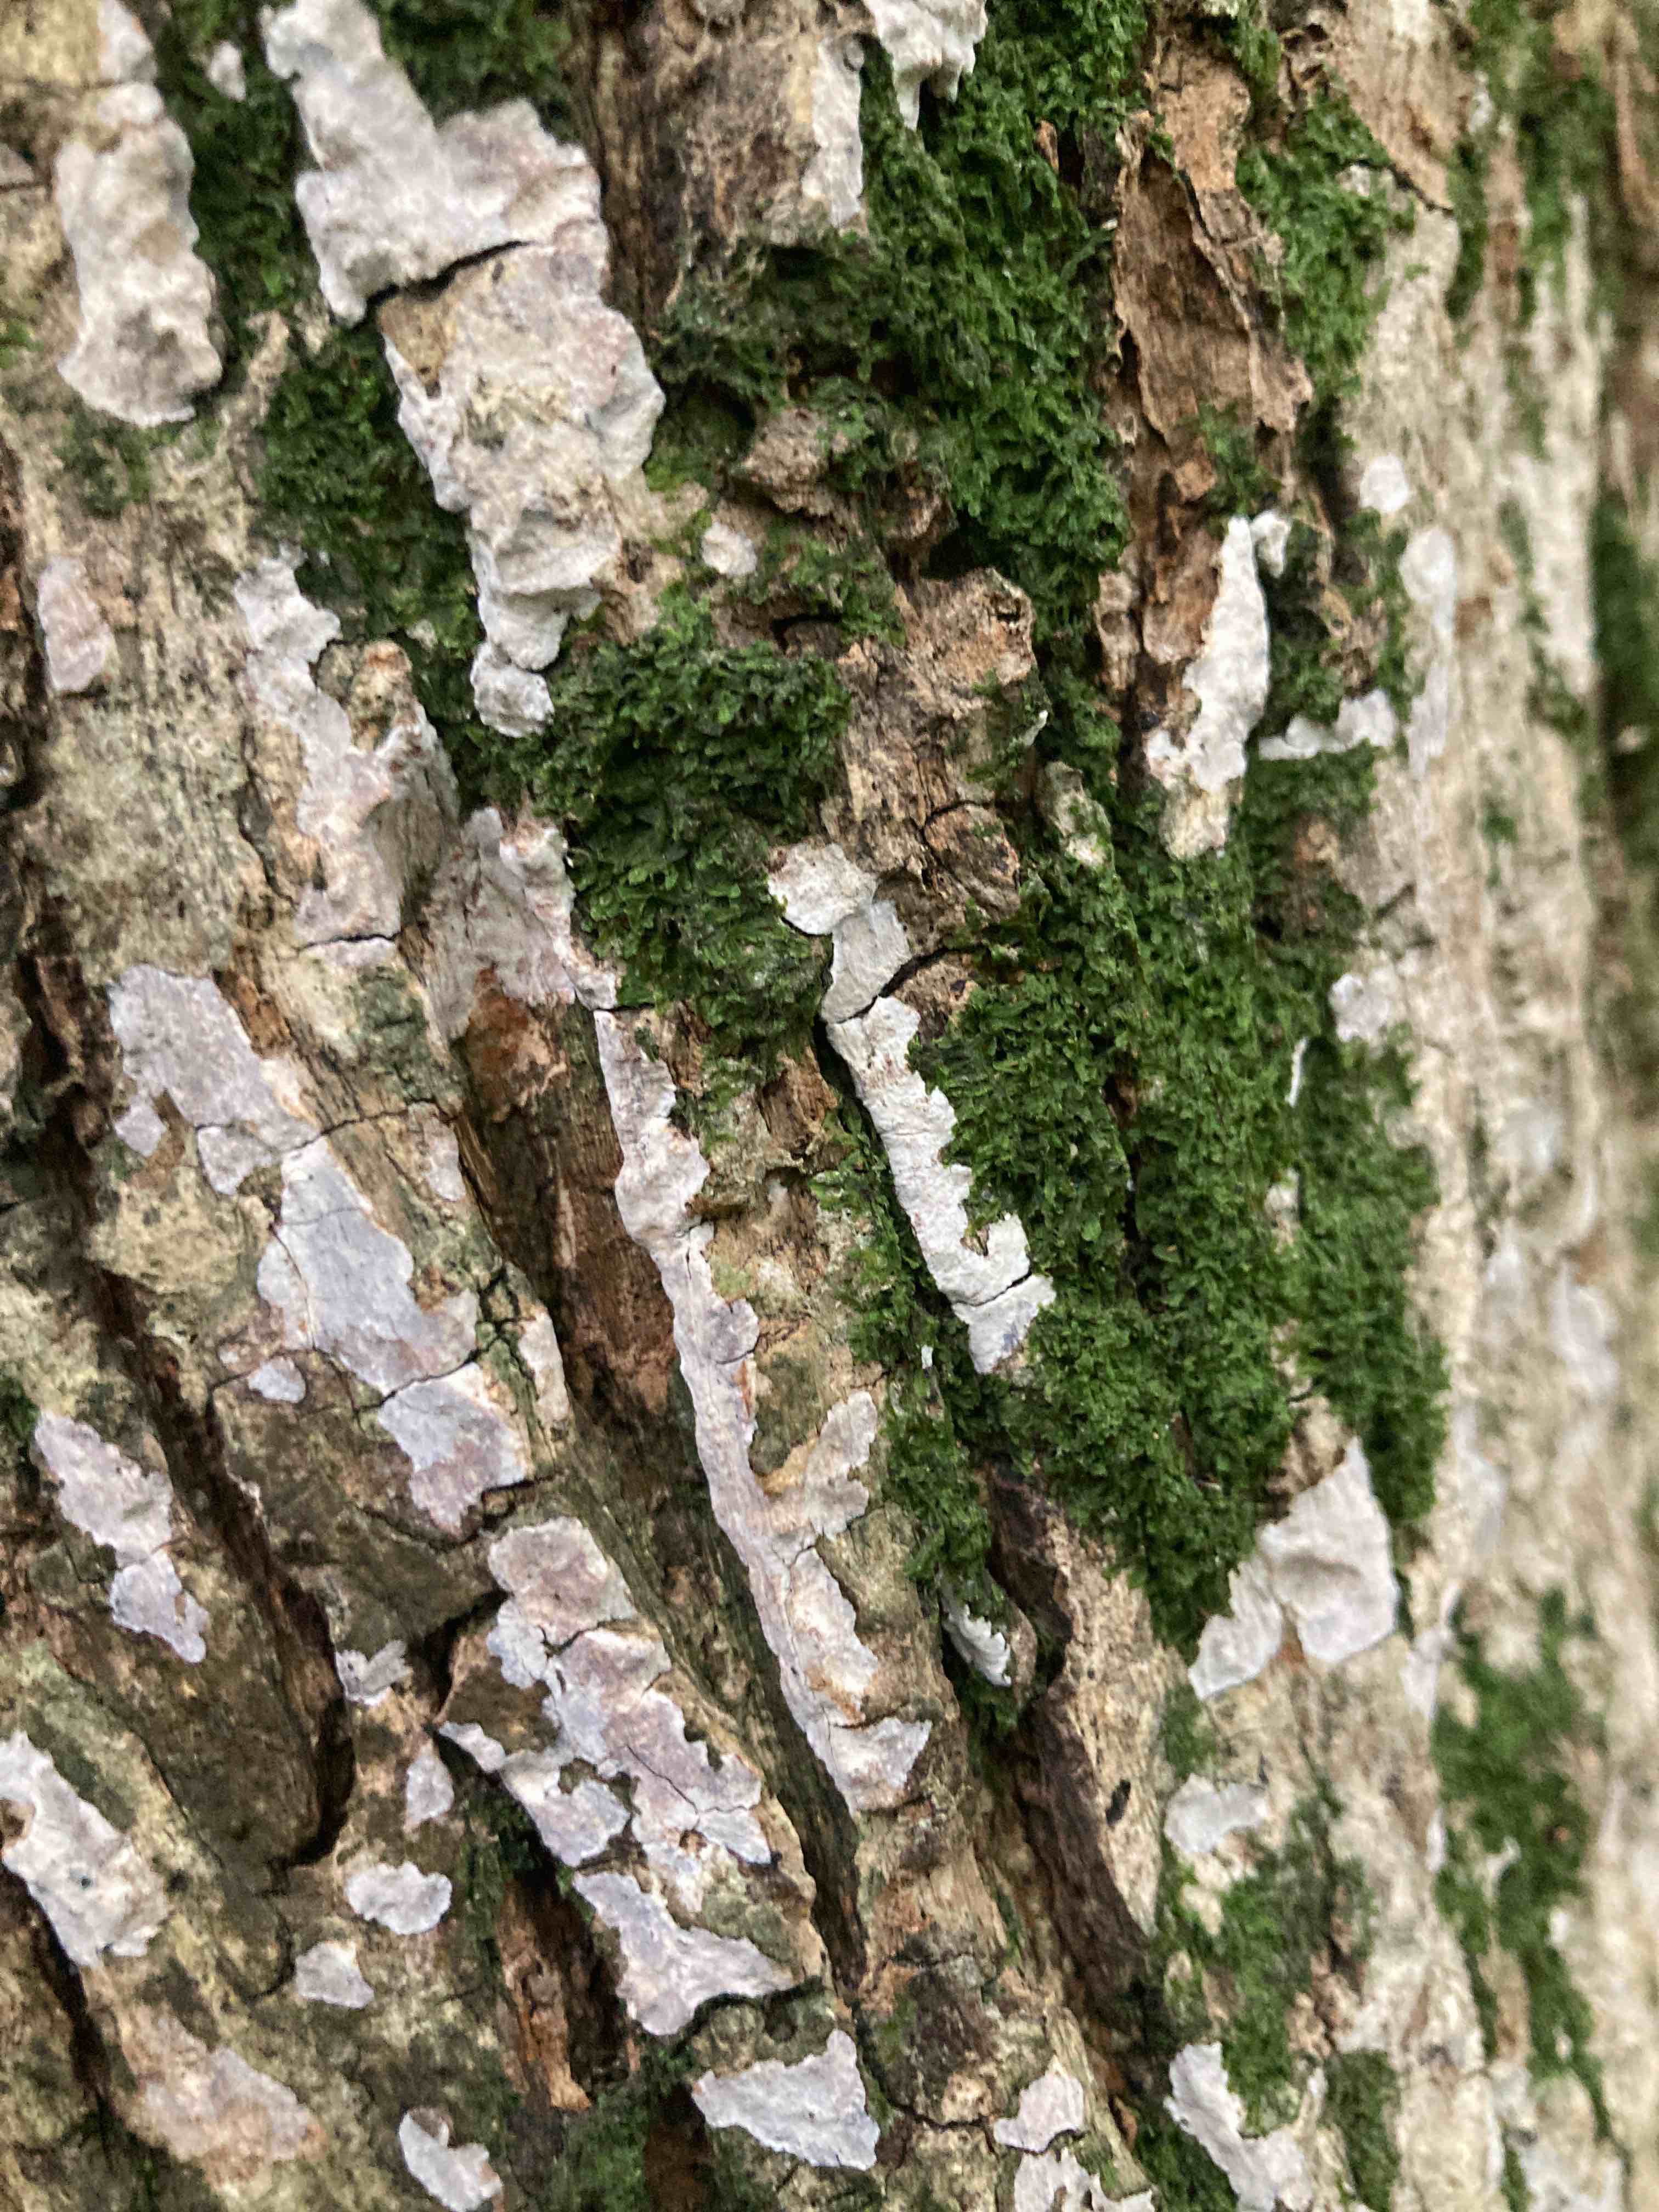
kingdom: Fungi
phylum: Basidiomycota
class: Agaricomycetes
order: Agaricales
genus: Dendrothele
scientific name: Dendrothele acerina
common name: navr-kalkplet
